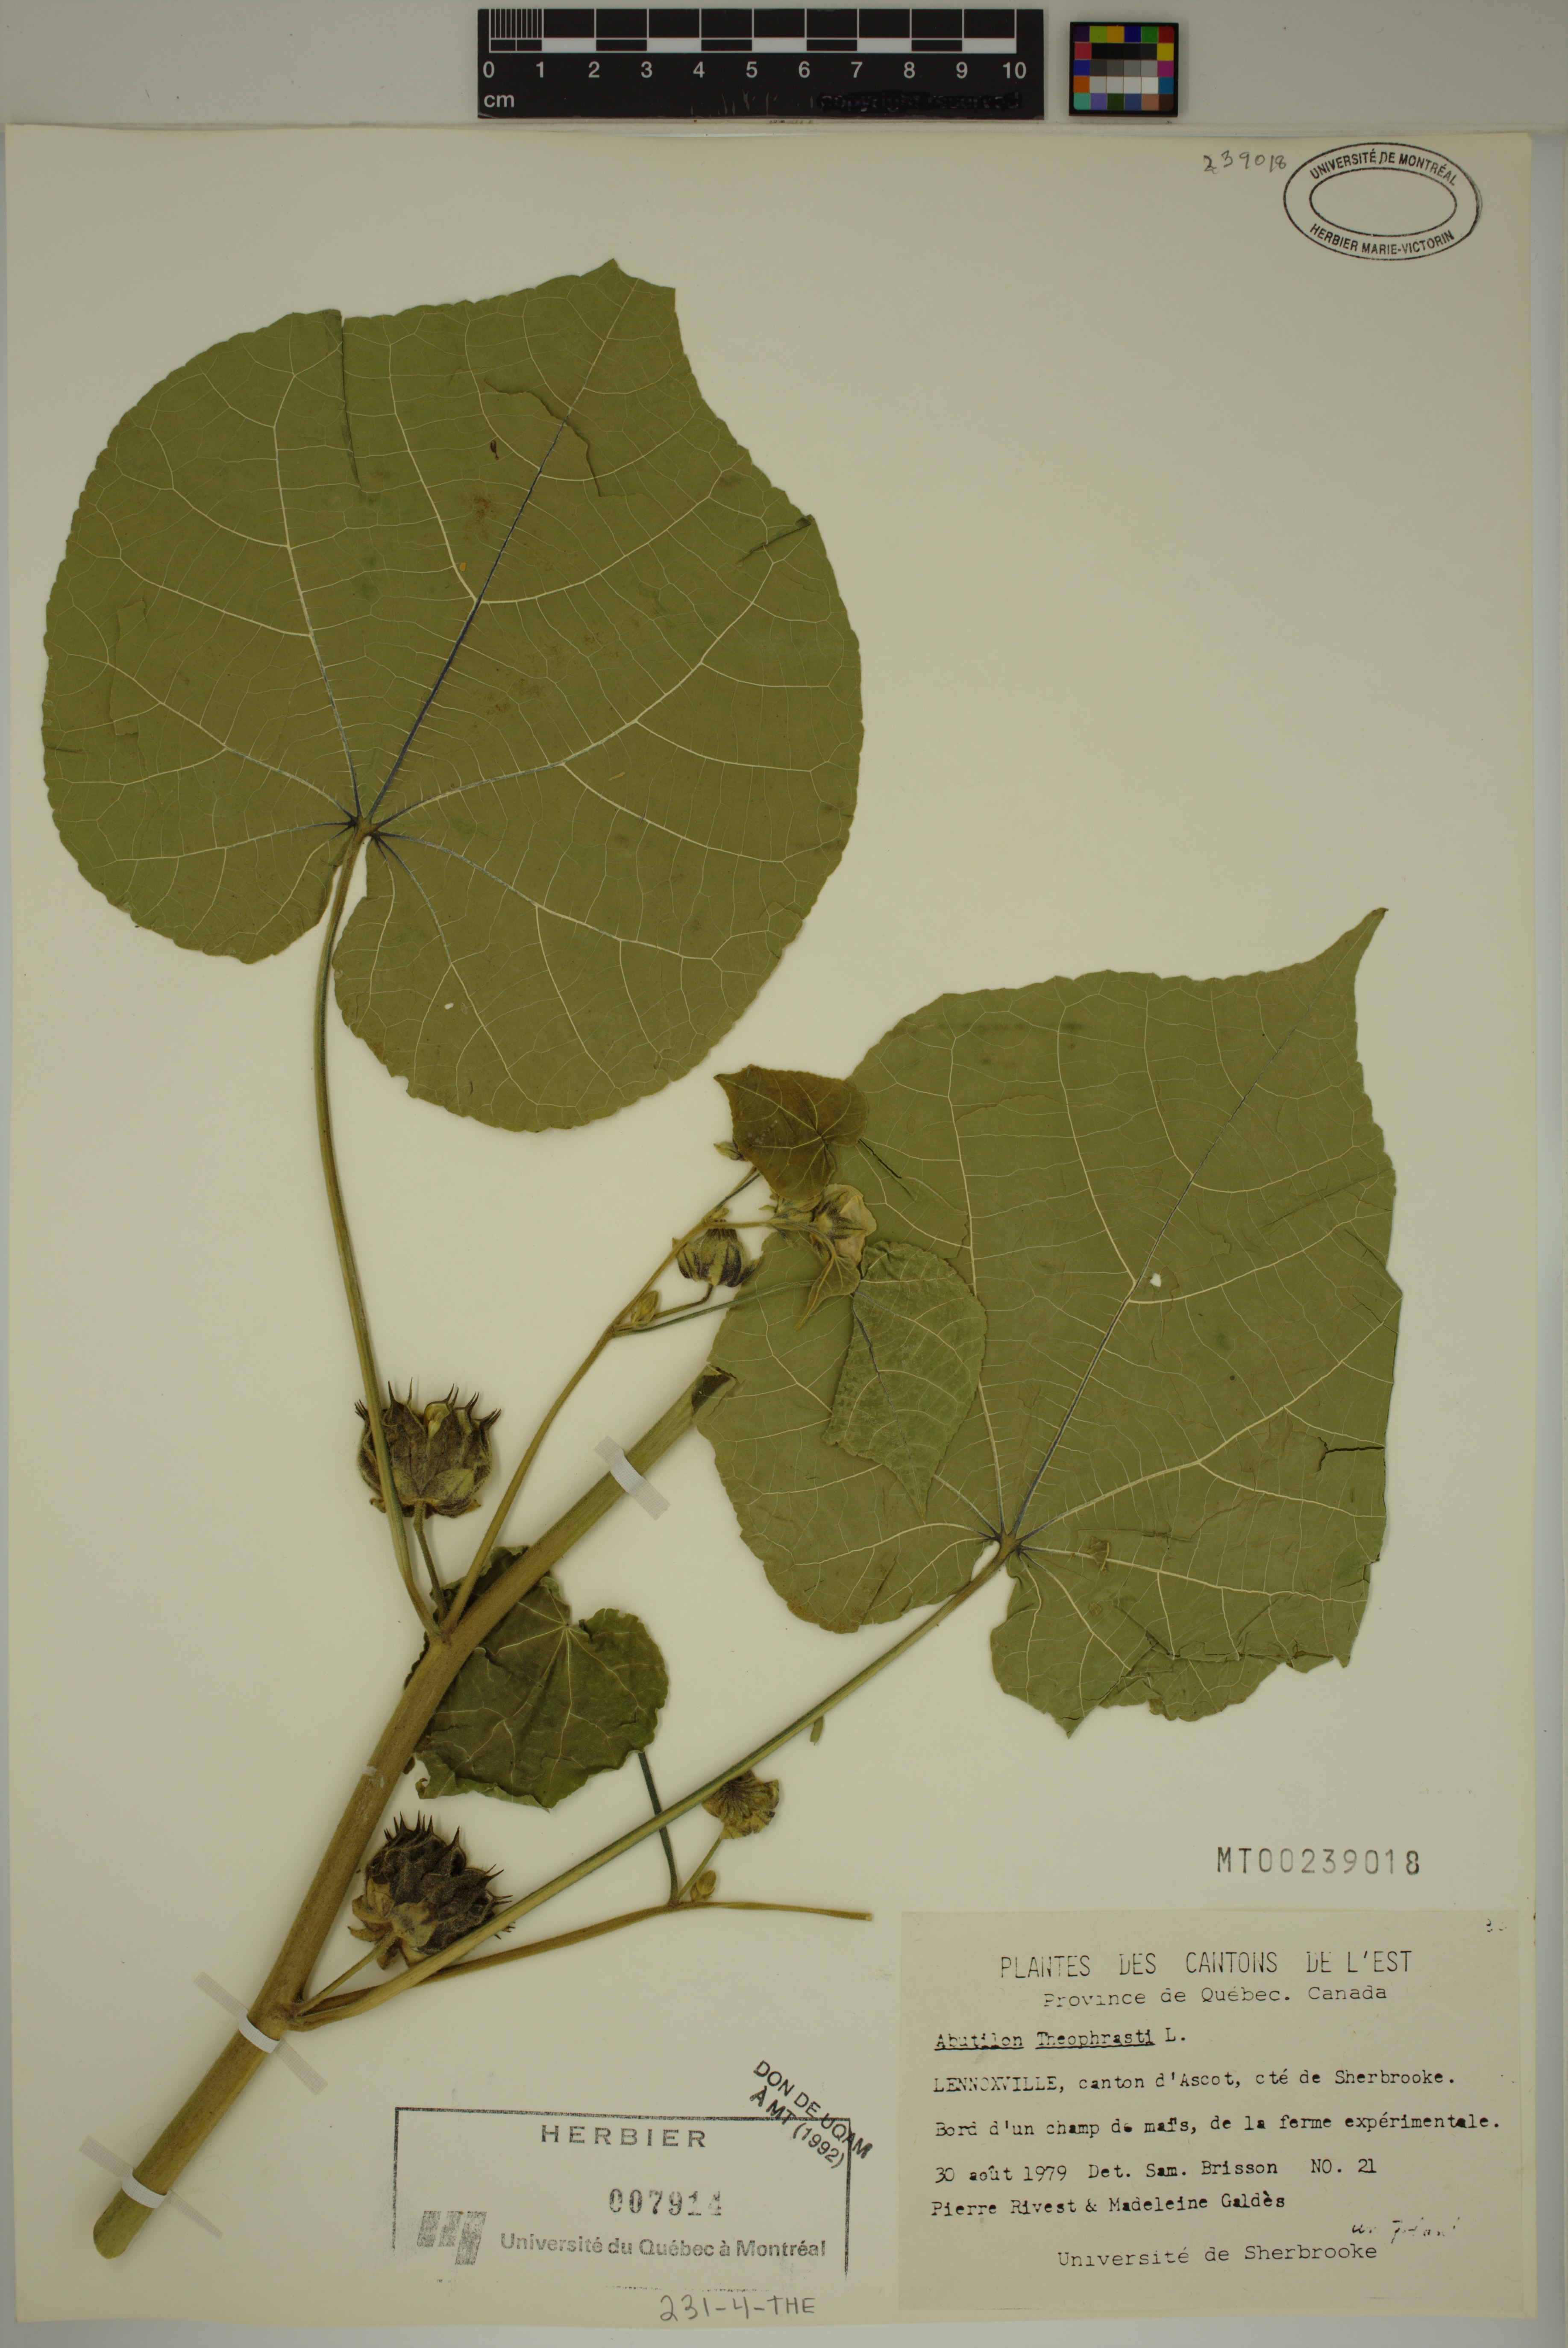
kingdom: Plantae
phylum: Tracheophyta
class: Magnoliopsida
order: Malvales
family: Malvaceae
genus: Abutilon
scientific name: Abutilon theophrasti
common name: Velvetleaf
